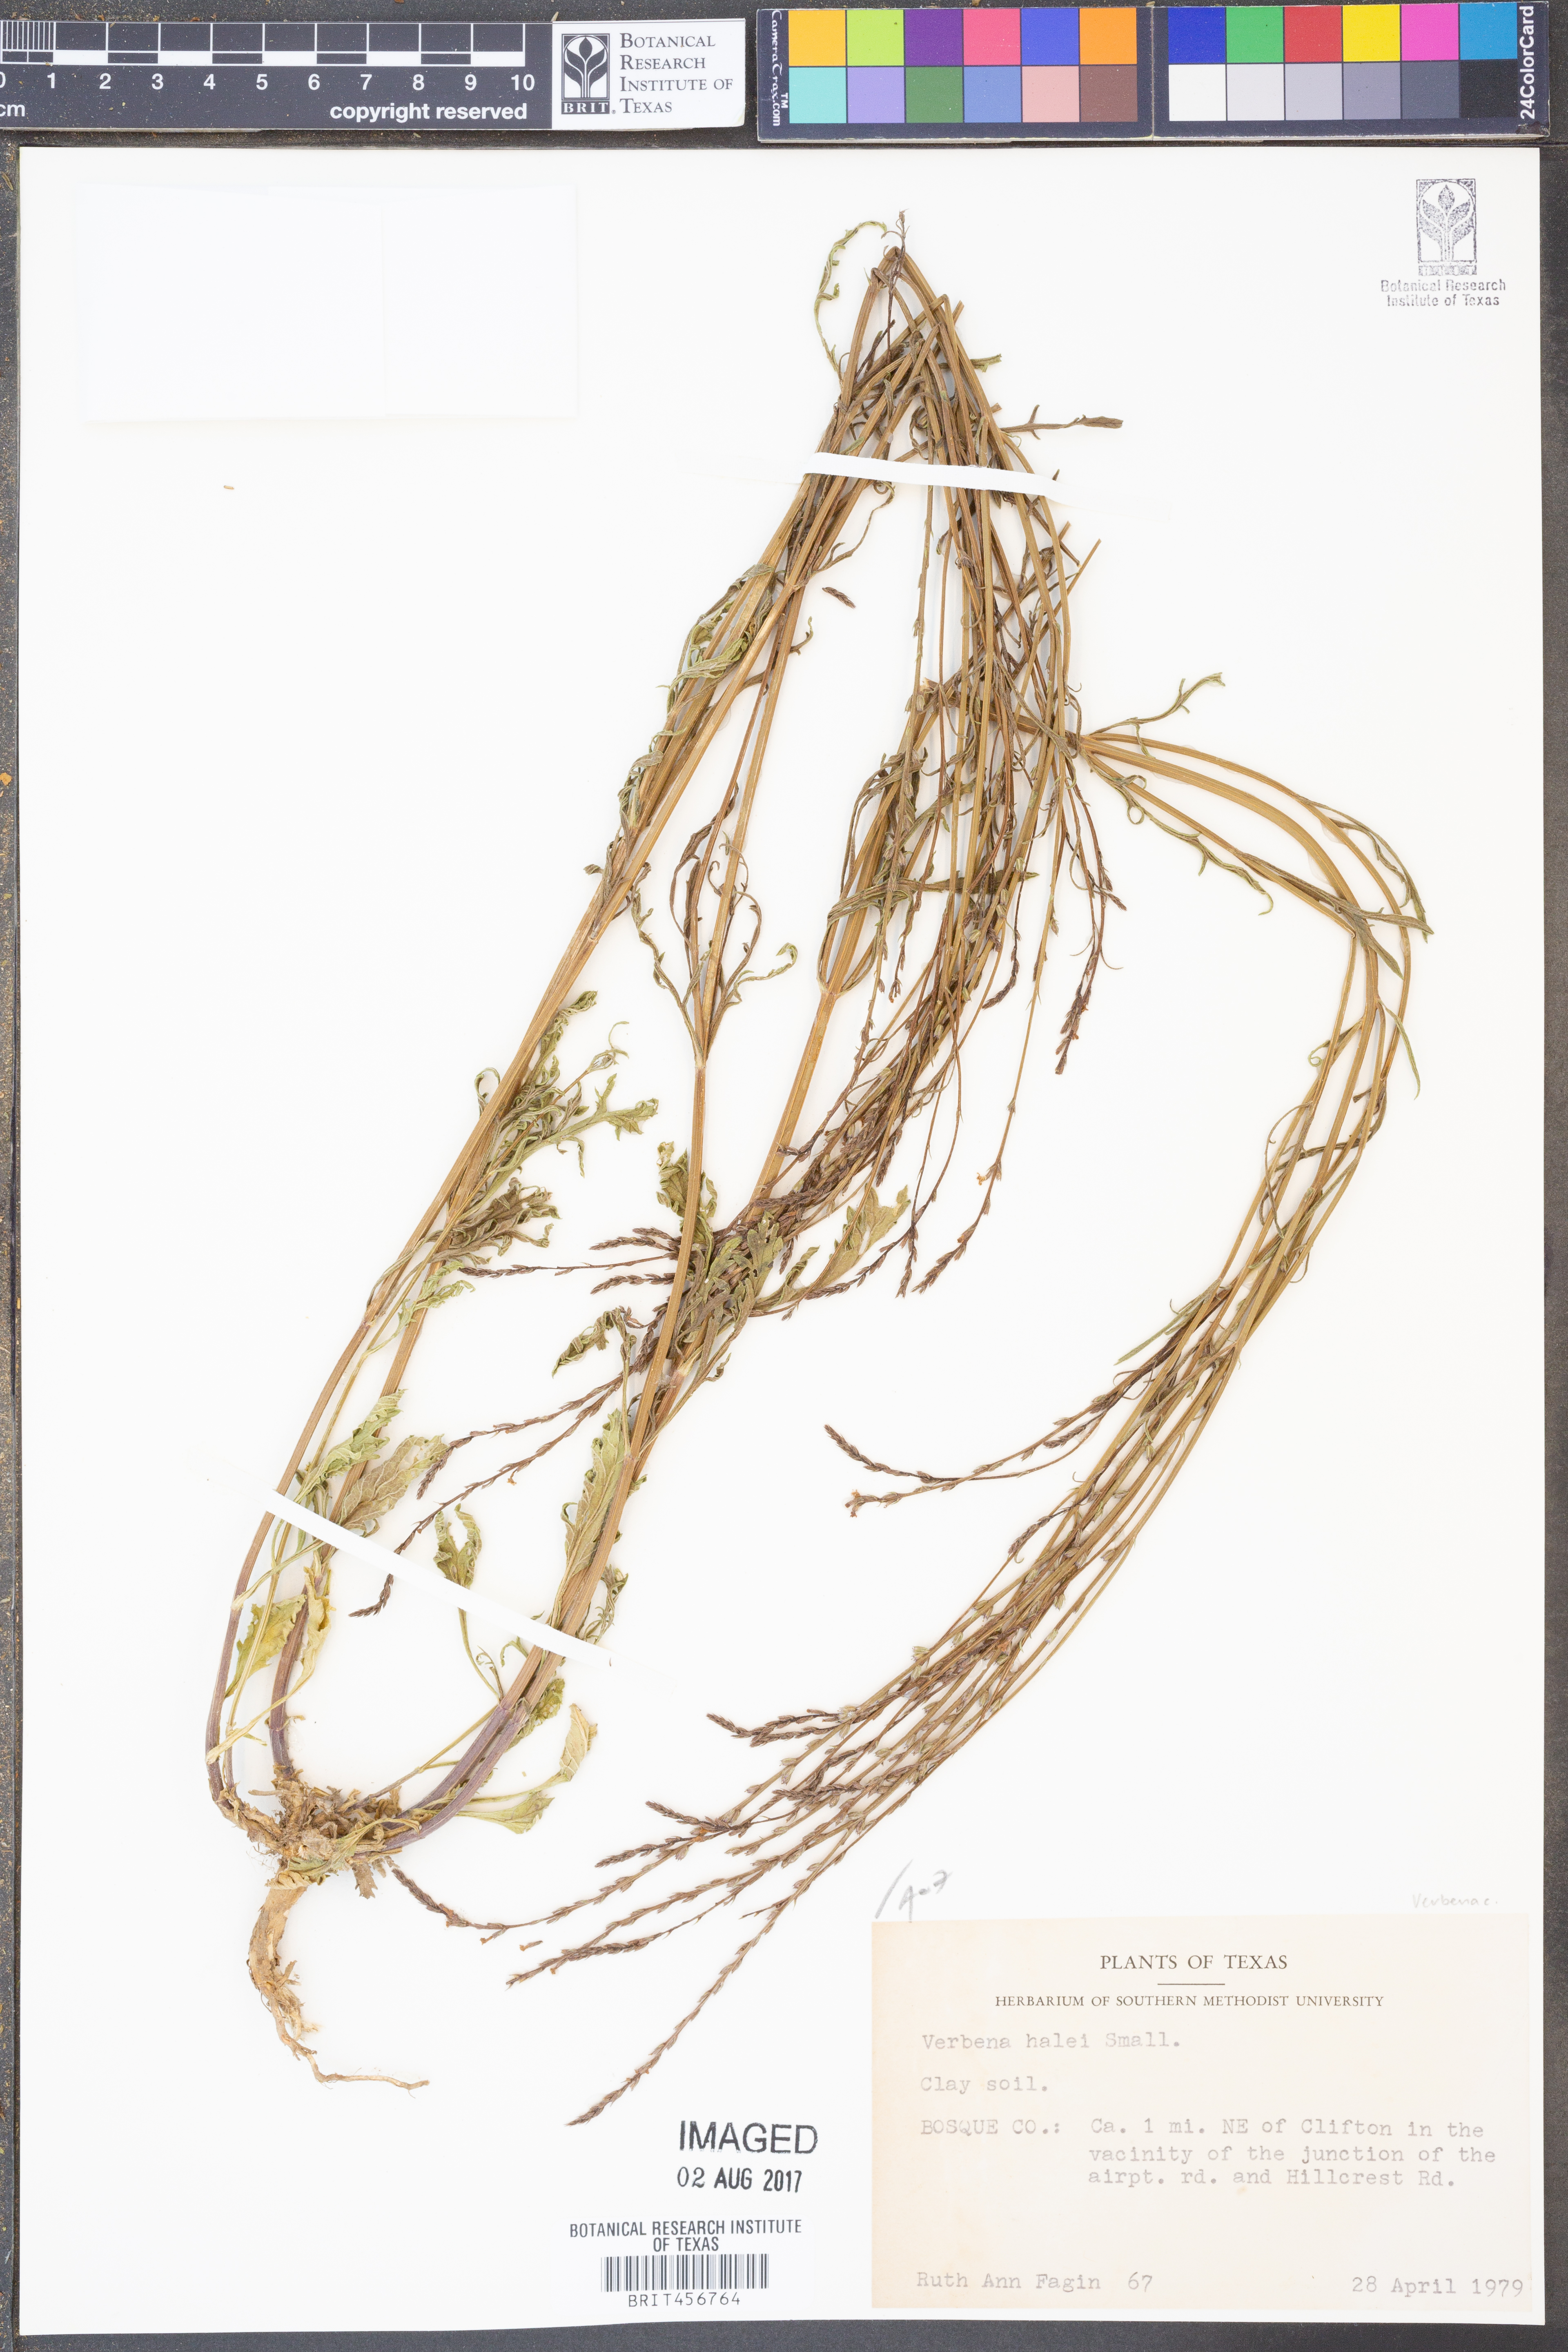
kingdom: Plantae
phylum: Tracheophyta
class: Magnoliopsida
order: Lamiales
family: Verbenaceae
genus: Verbena
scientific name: Verbena halei
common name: Texas vervain
